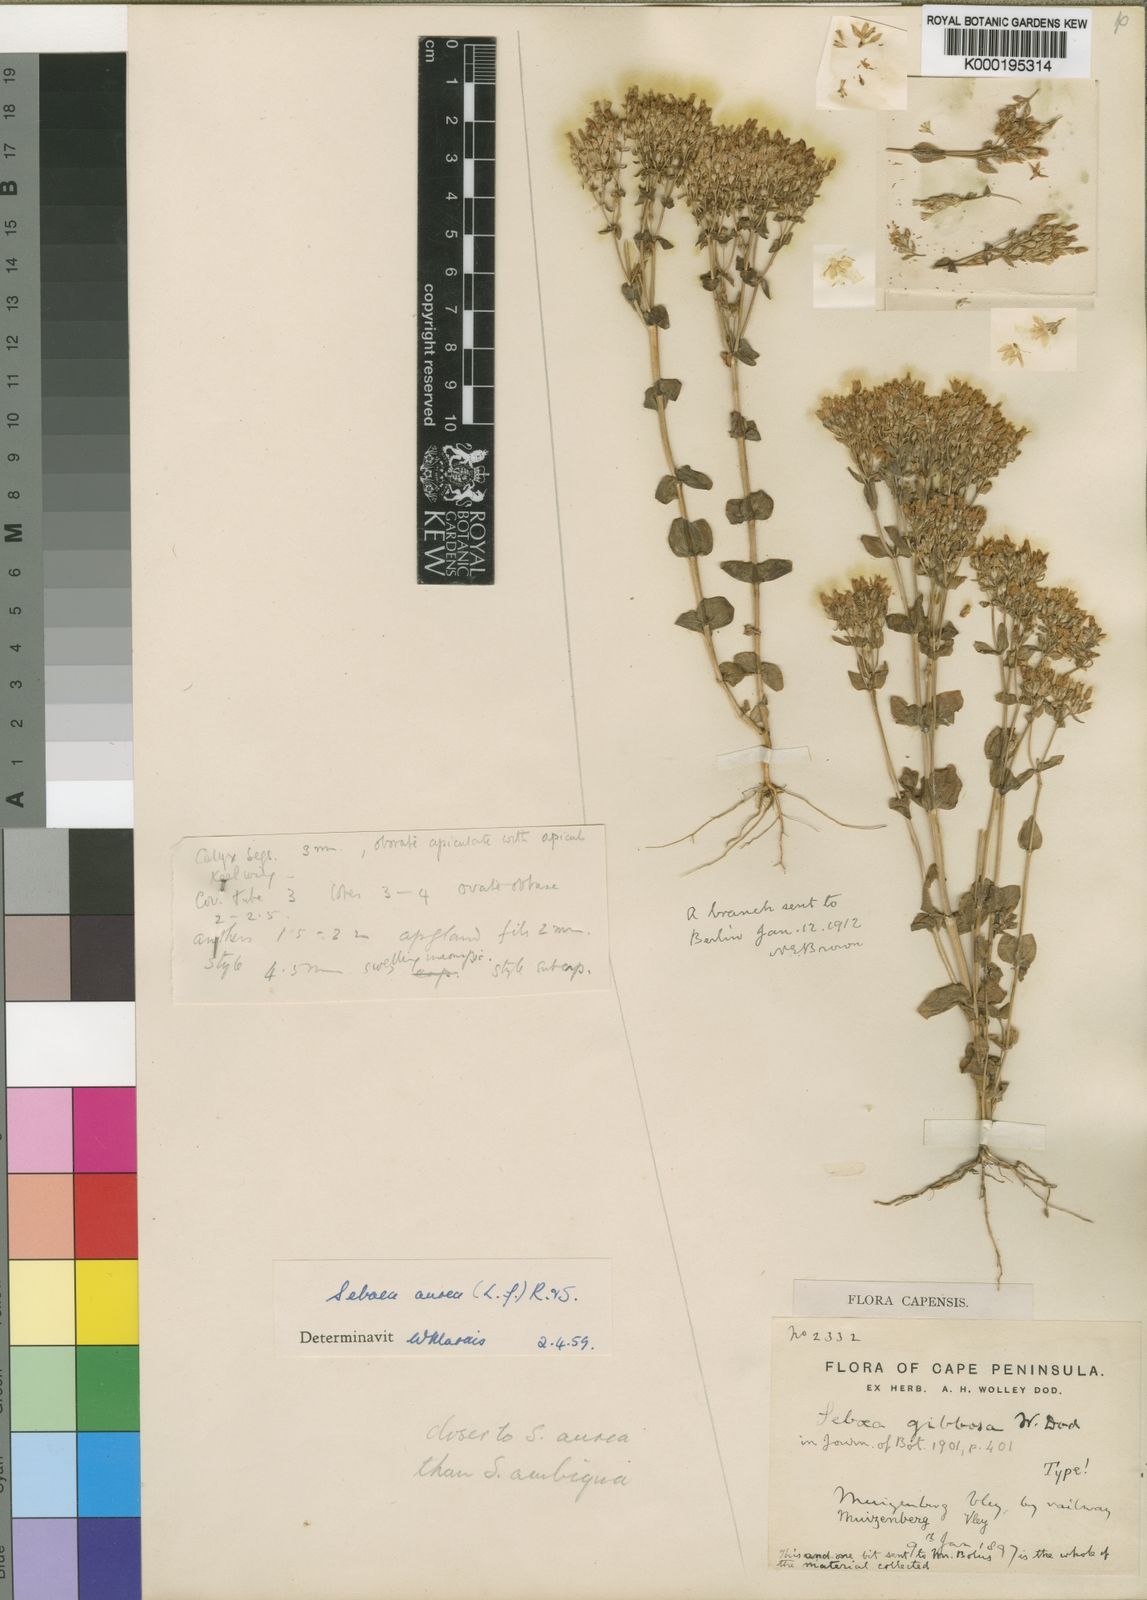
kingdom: Plantae
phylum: Tracheophyta
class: Magnoliopsida
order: Gentianales
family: Gentianaceae
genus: Sebaea
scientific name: Sebaea aurea
